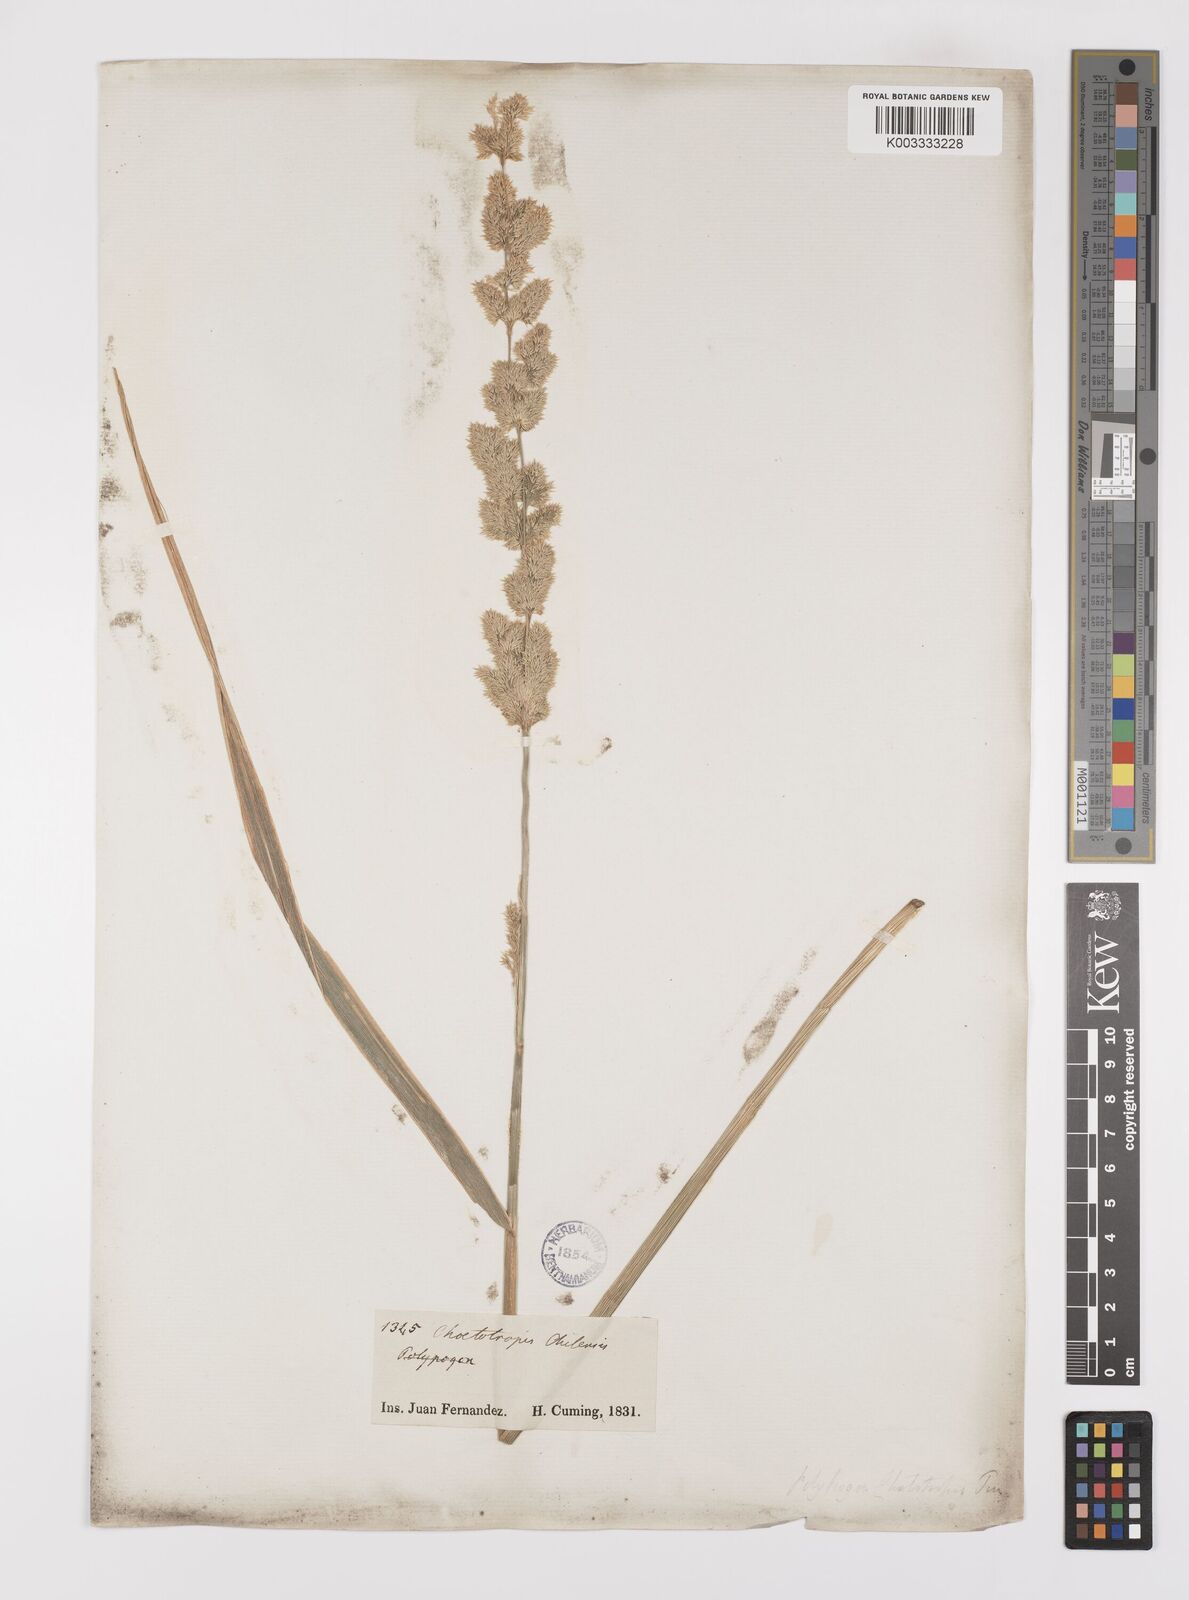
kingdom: Plantae
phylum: Tracheophyta
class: Liliopsida
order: Poales
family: Poaceae
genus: Polypogon
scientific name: Polypogon chilensis
